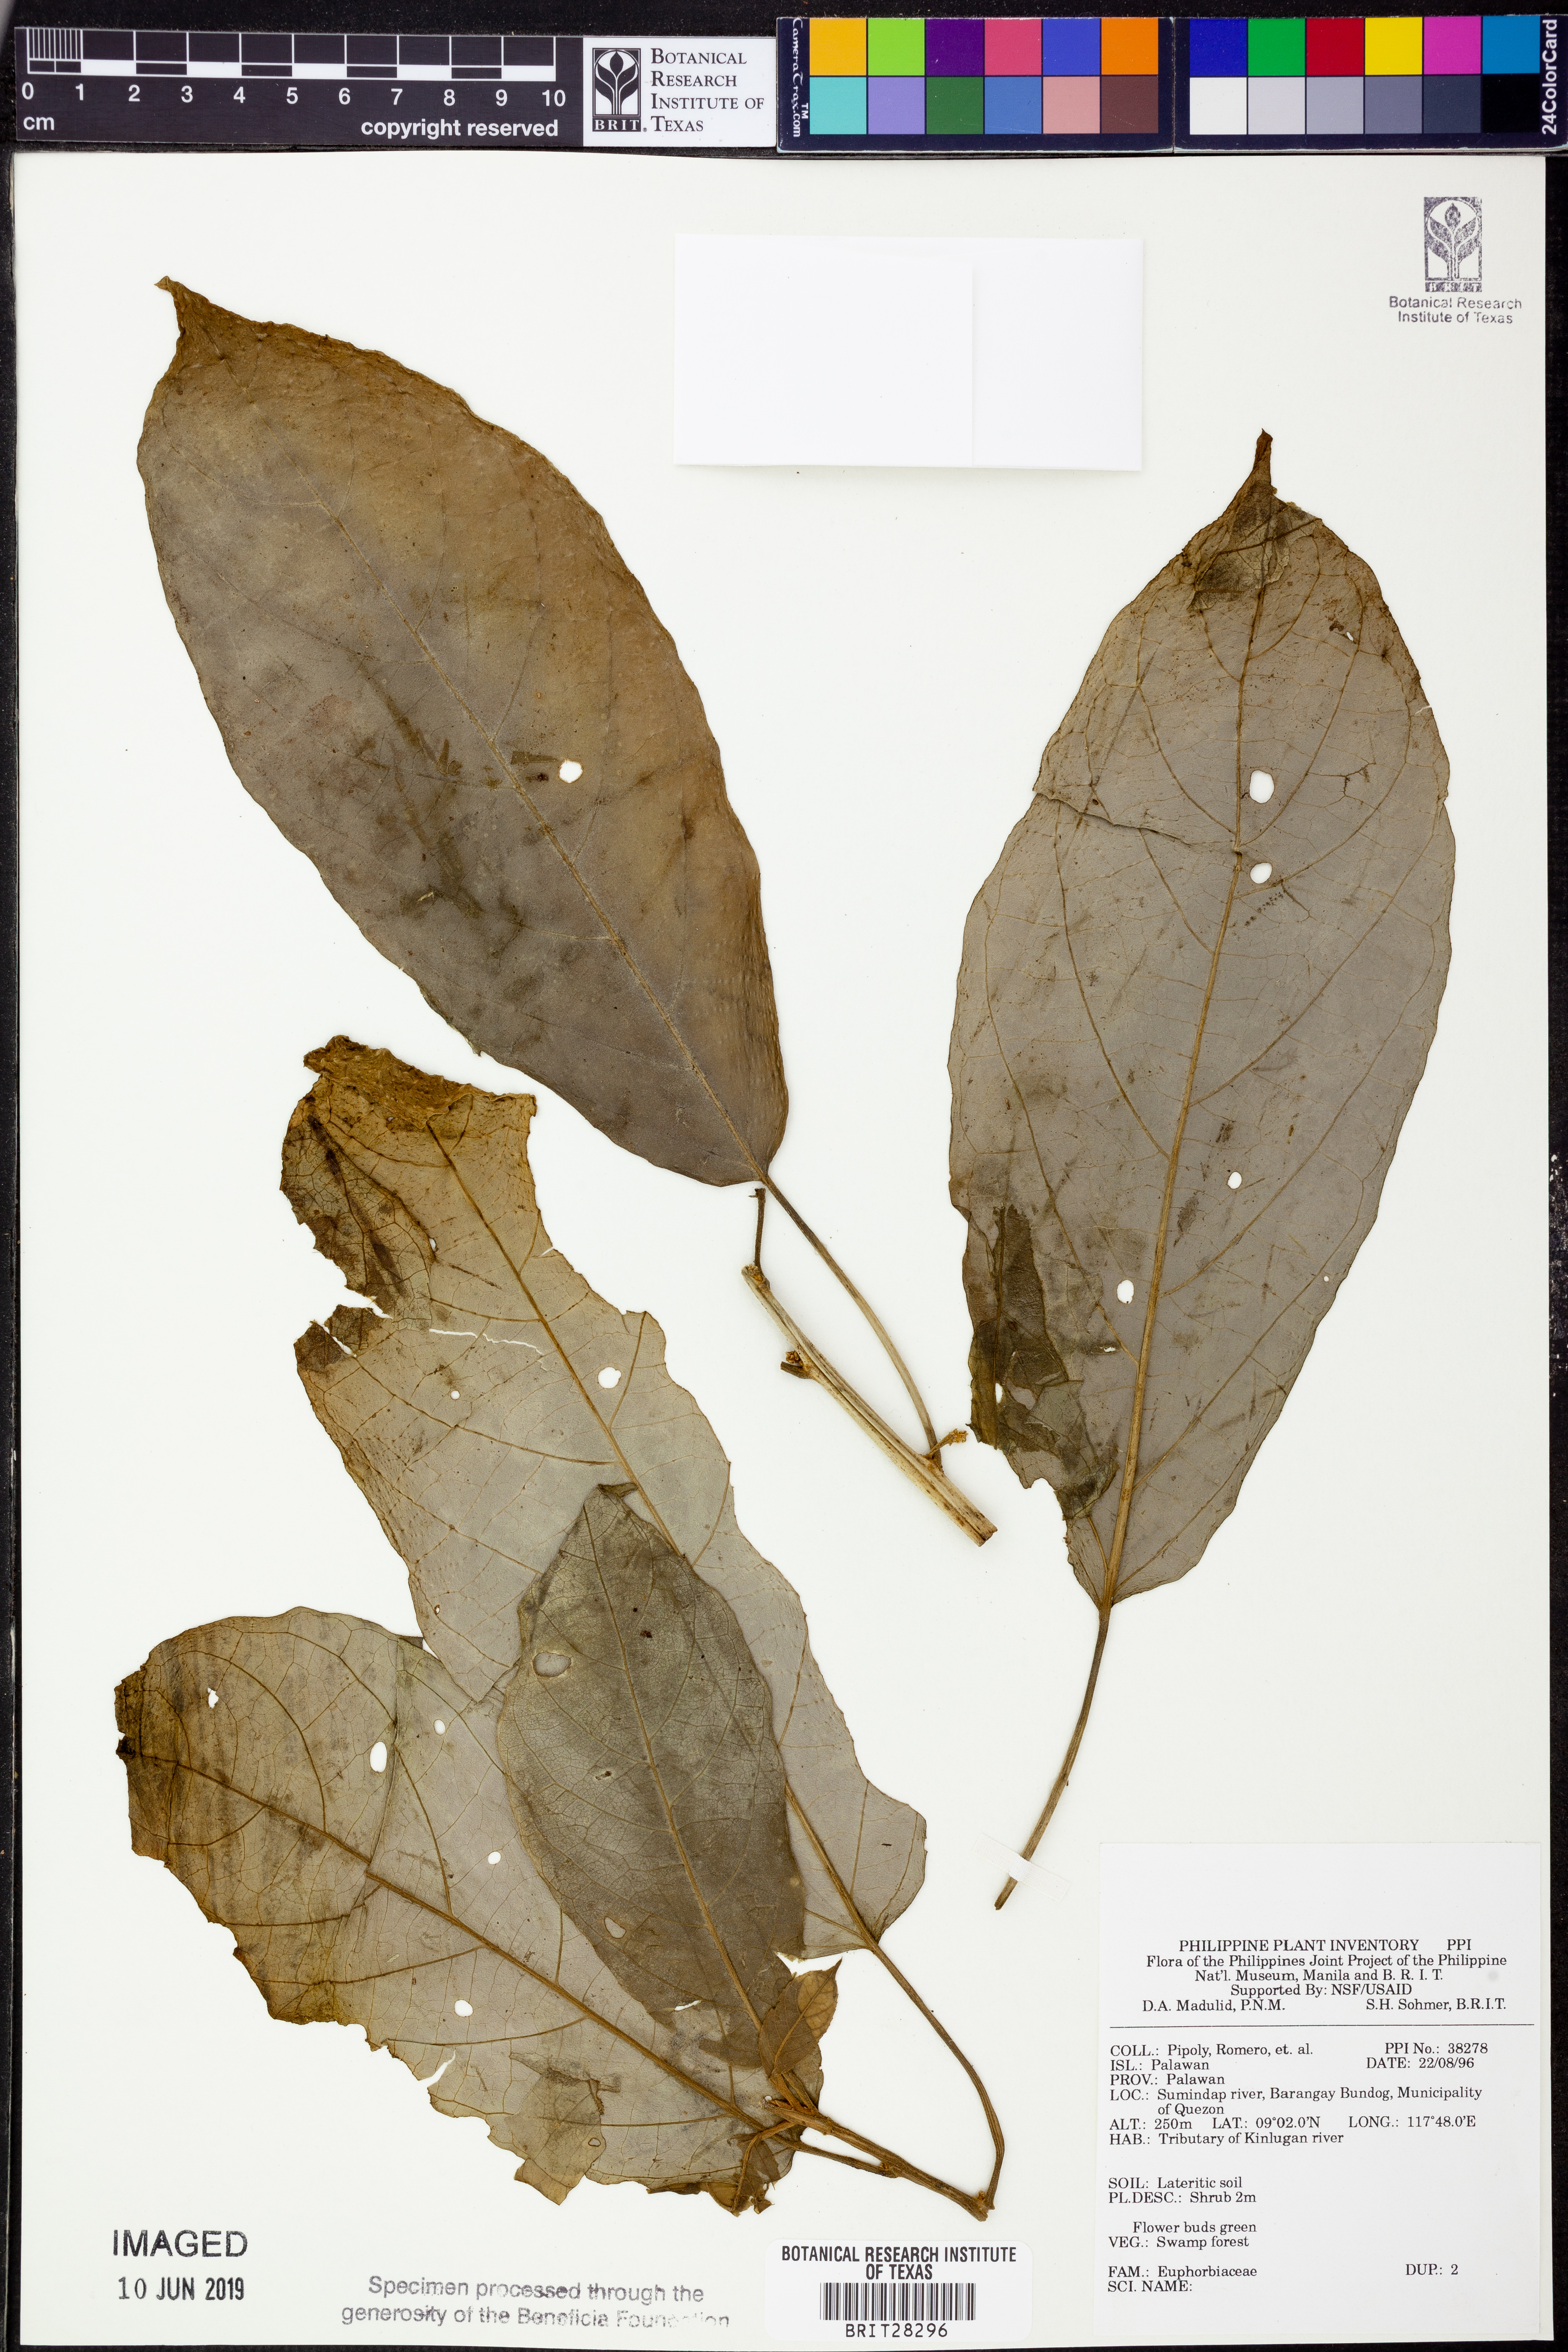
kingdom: Plantae
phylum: Tracheophyta
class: Magnoliopsida
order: Malpighiales
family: Euphorbiaceae
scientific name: Euphorbiaceae
